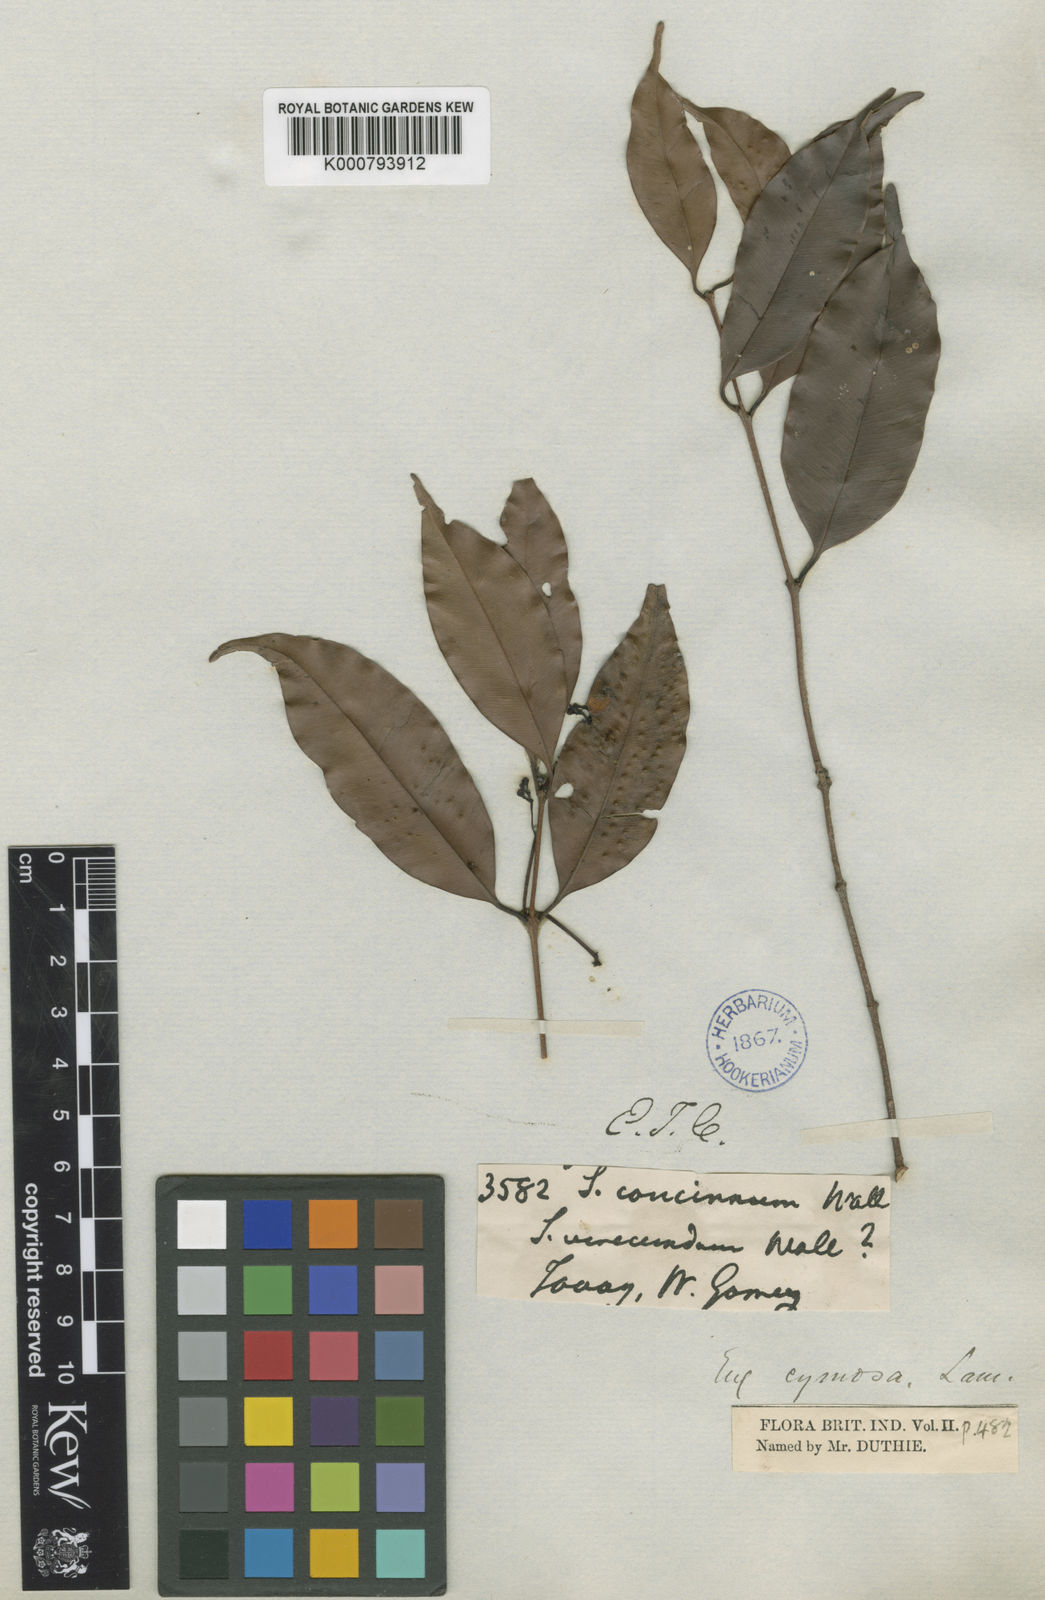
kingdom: Plantae
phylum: Tracheophyta
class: Magnoliopsida
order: Myrtales
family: Myrtaceae
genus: Syzygium
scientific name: Syzygium polyanthum
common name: Indonesian bayleaf
